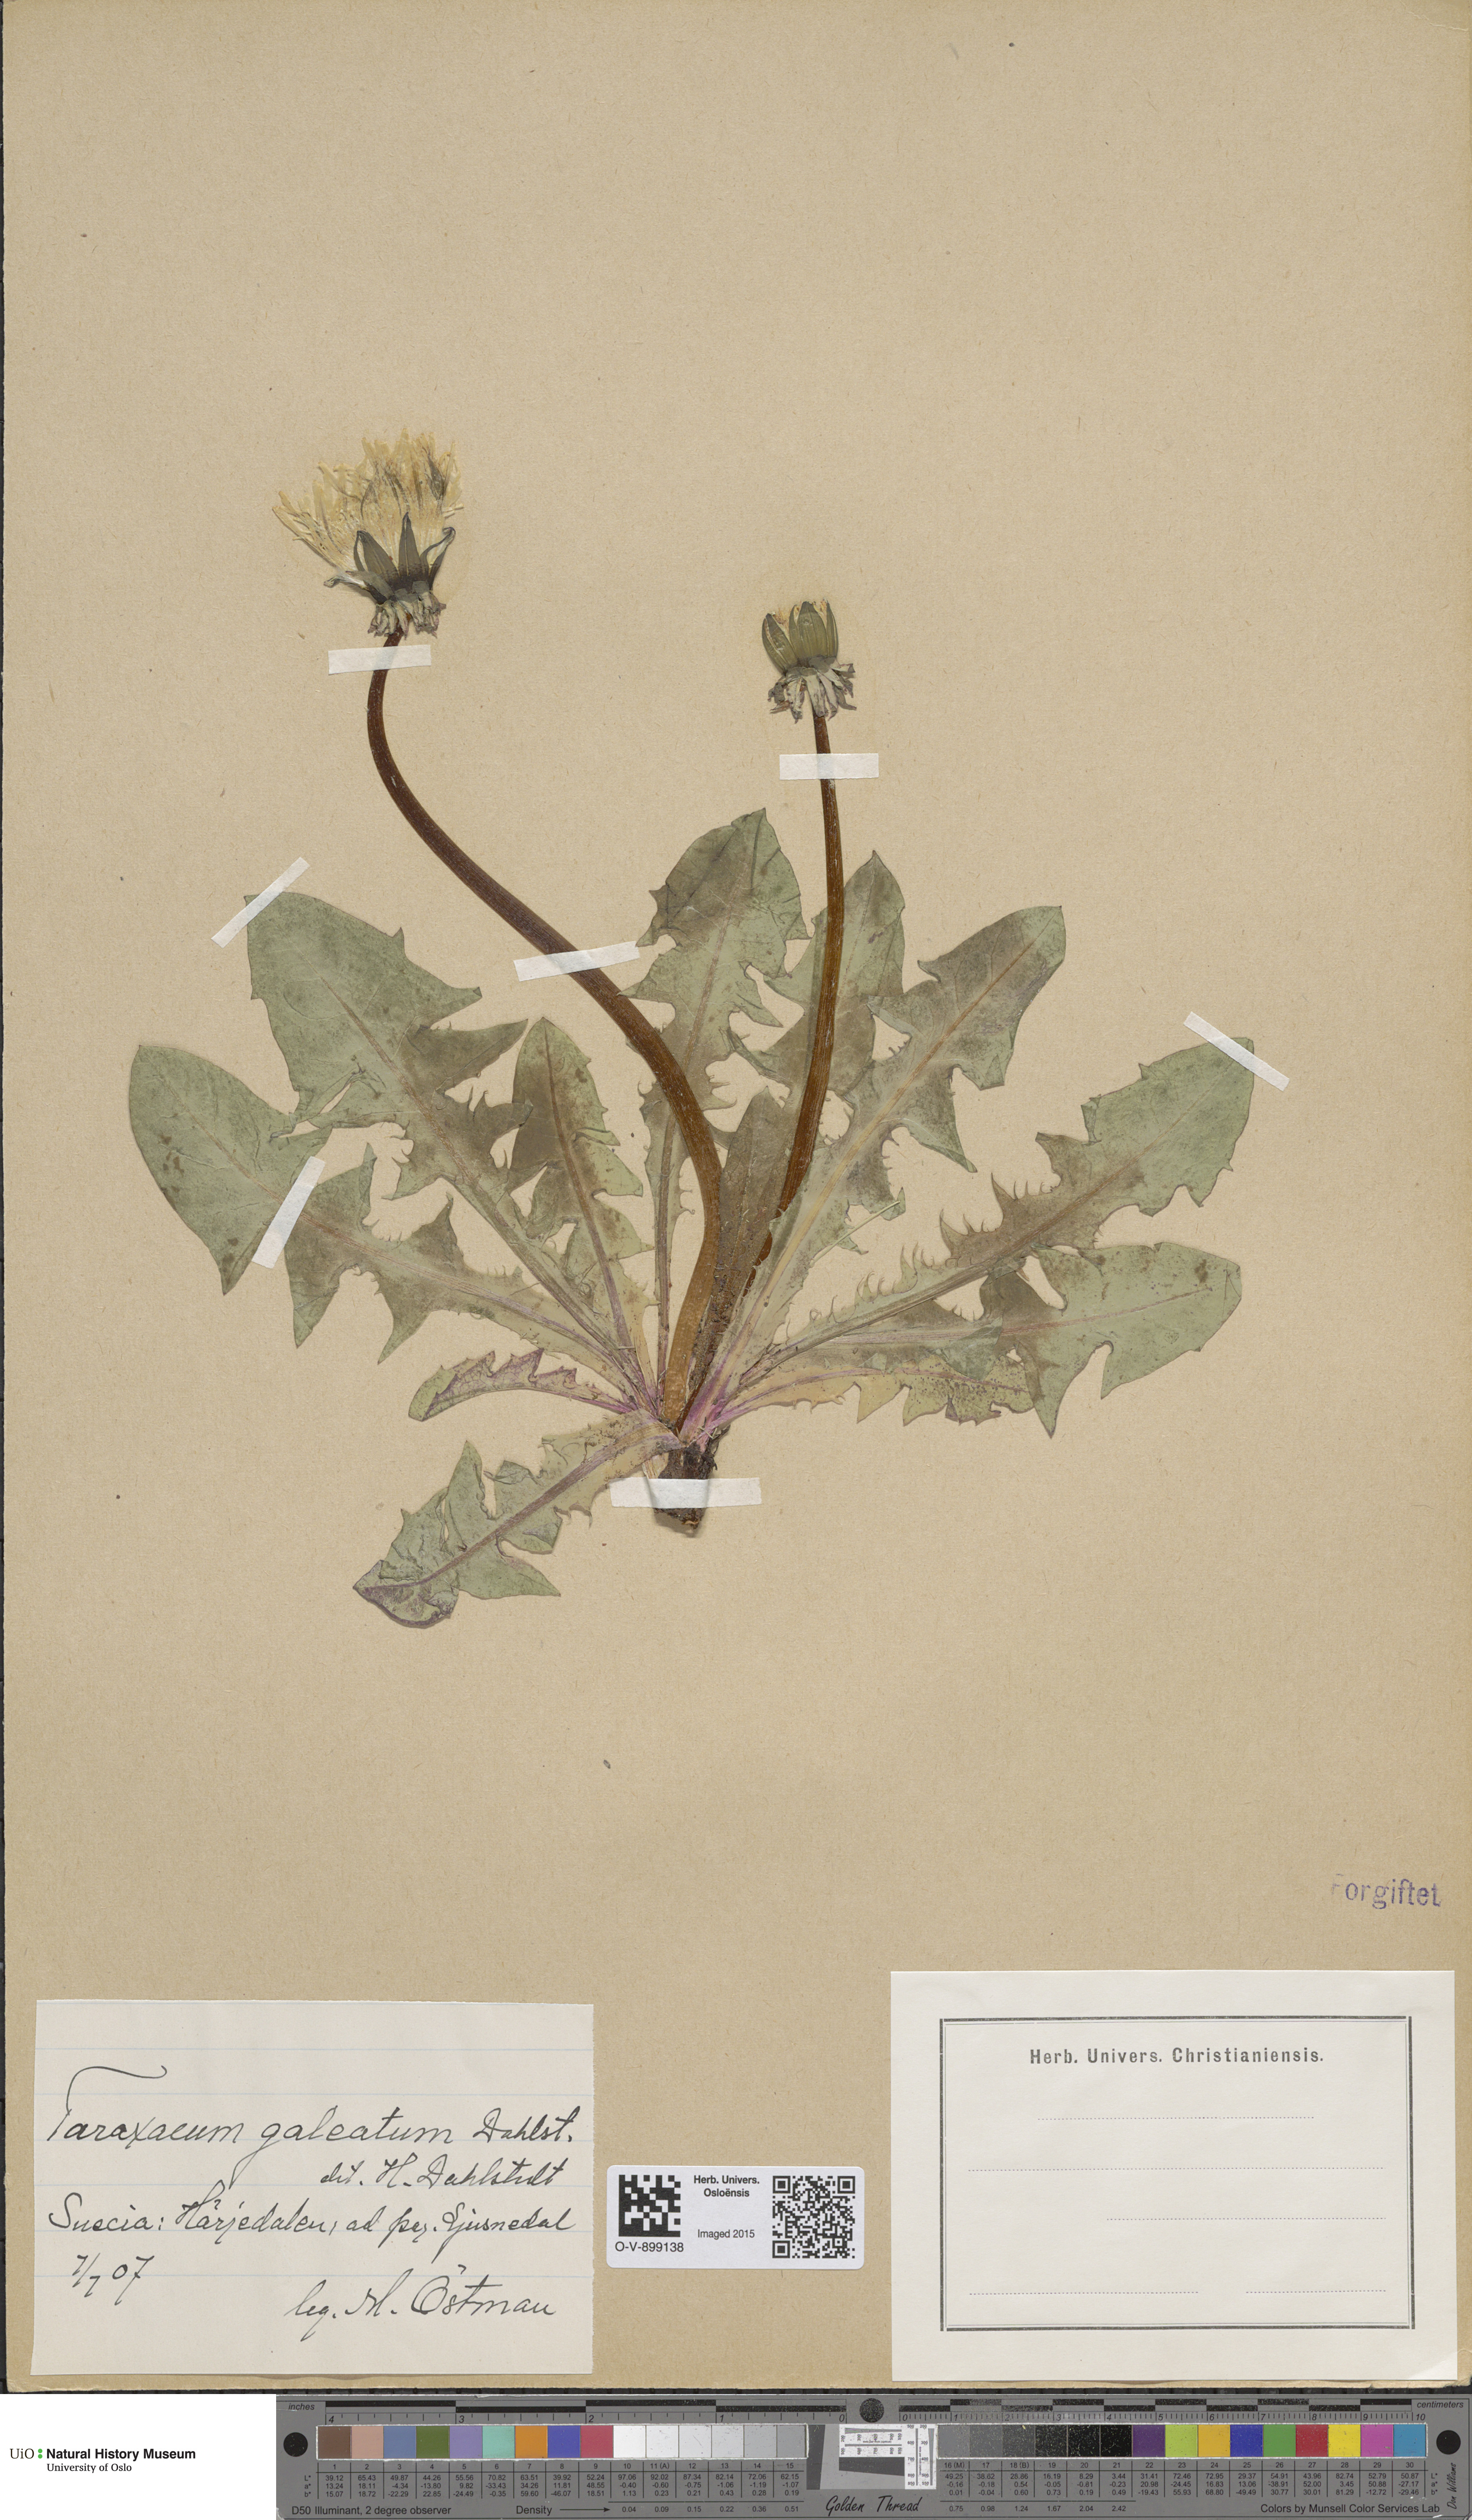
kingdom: Plantae
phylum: Tracheophyta
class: Magnoliopsida
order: Asterales
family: Asteraceae
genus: Taraxacum
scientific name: Taraxacum galeatum
